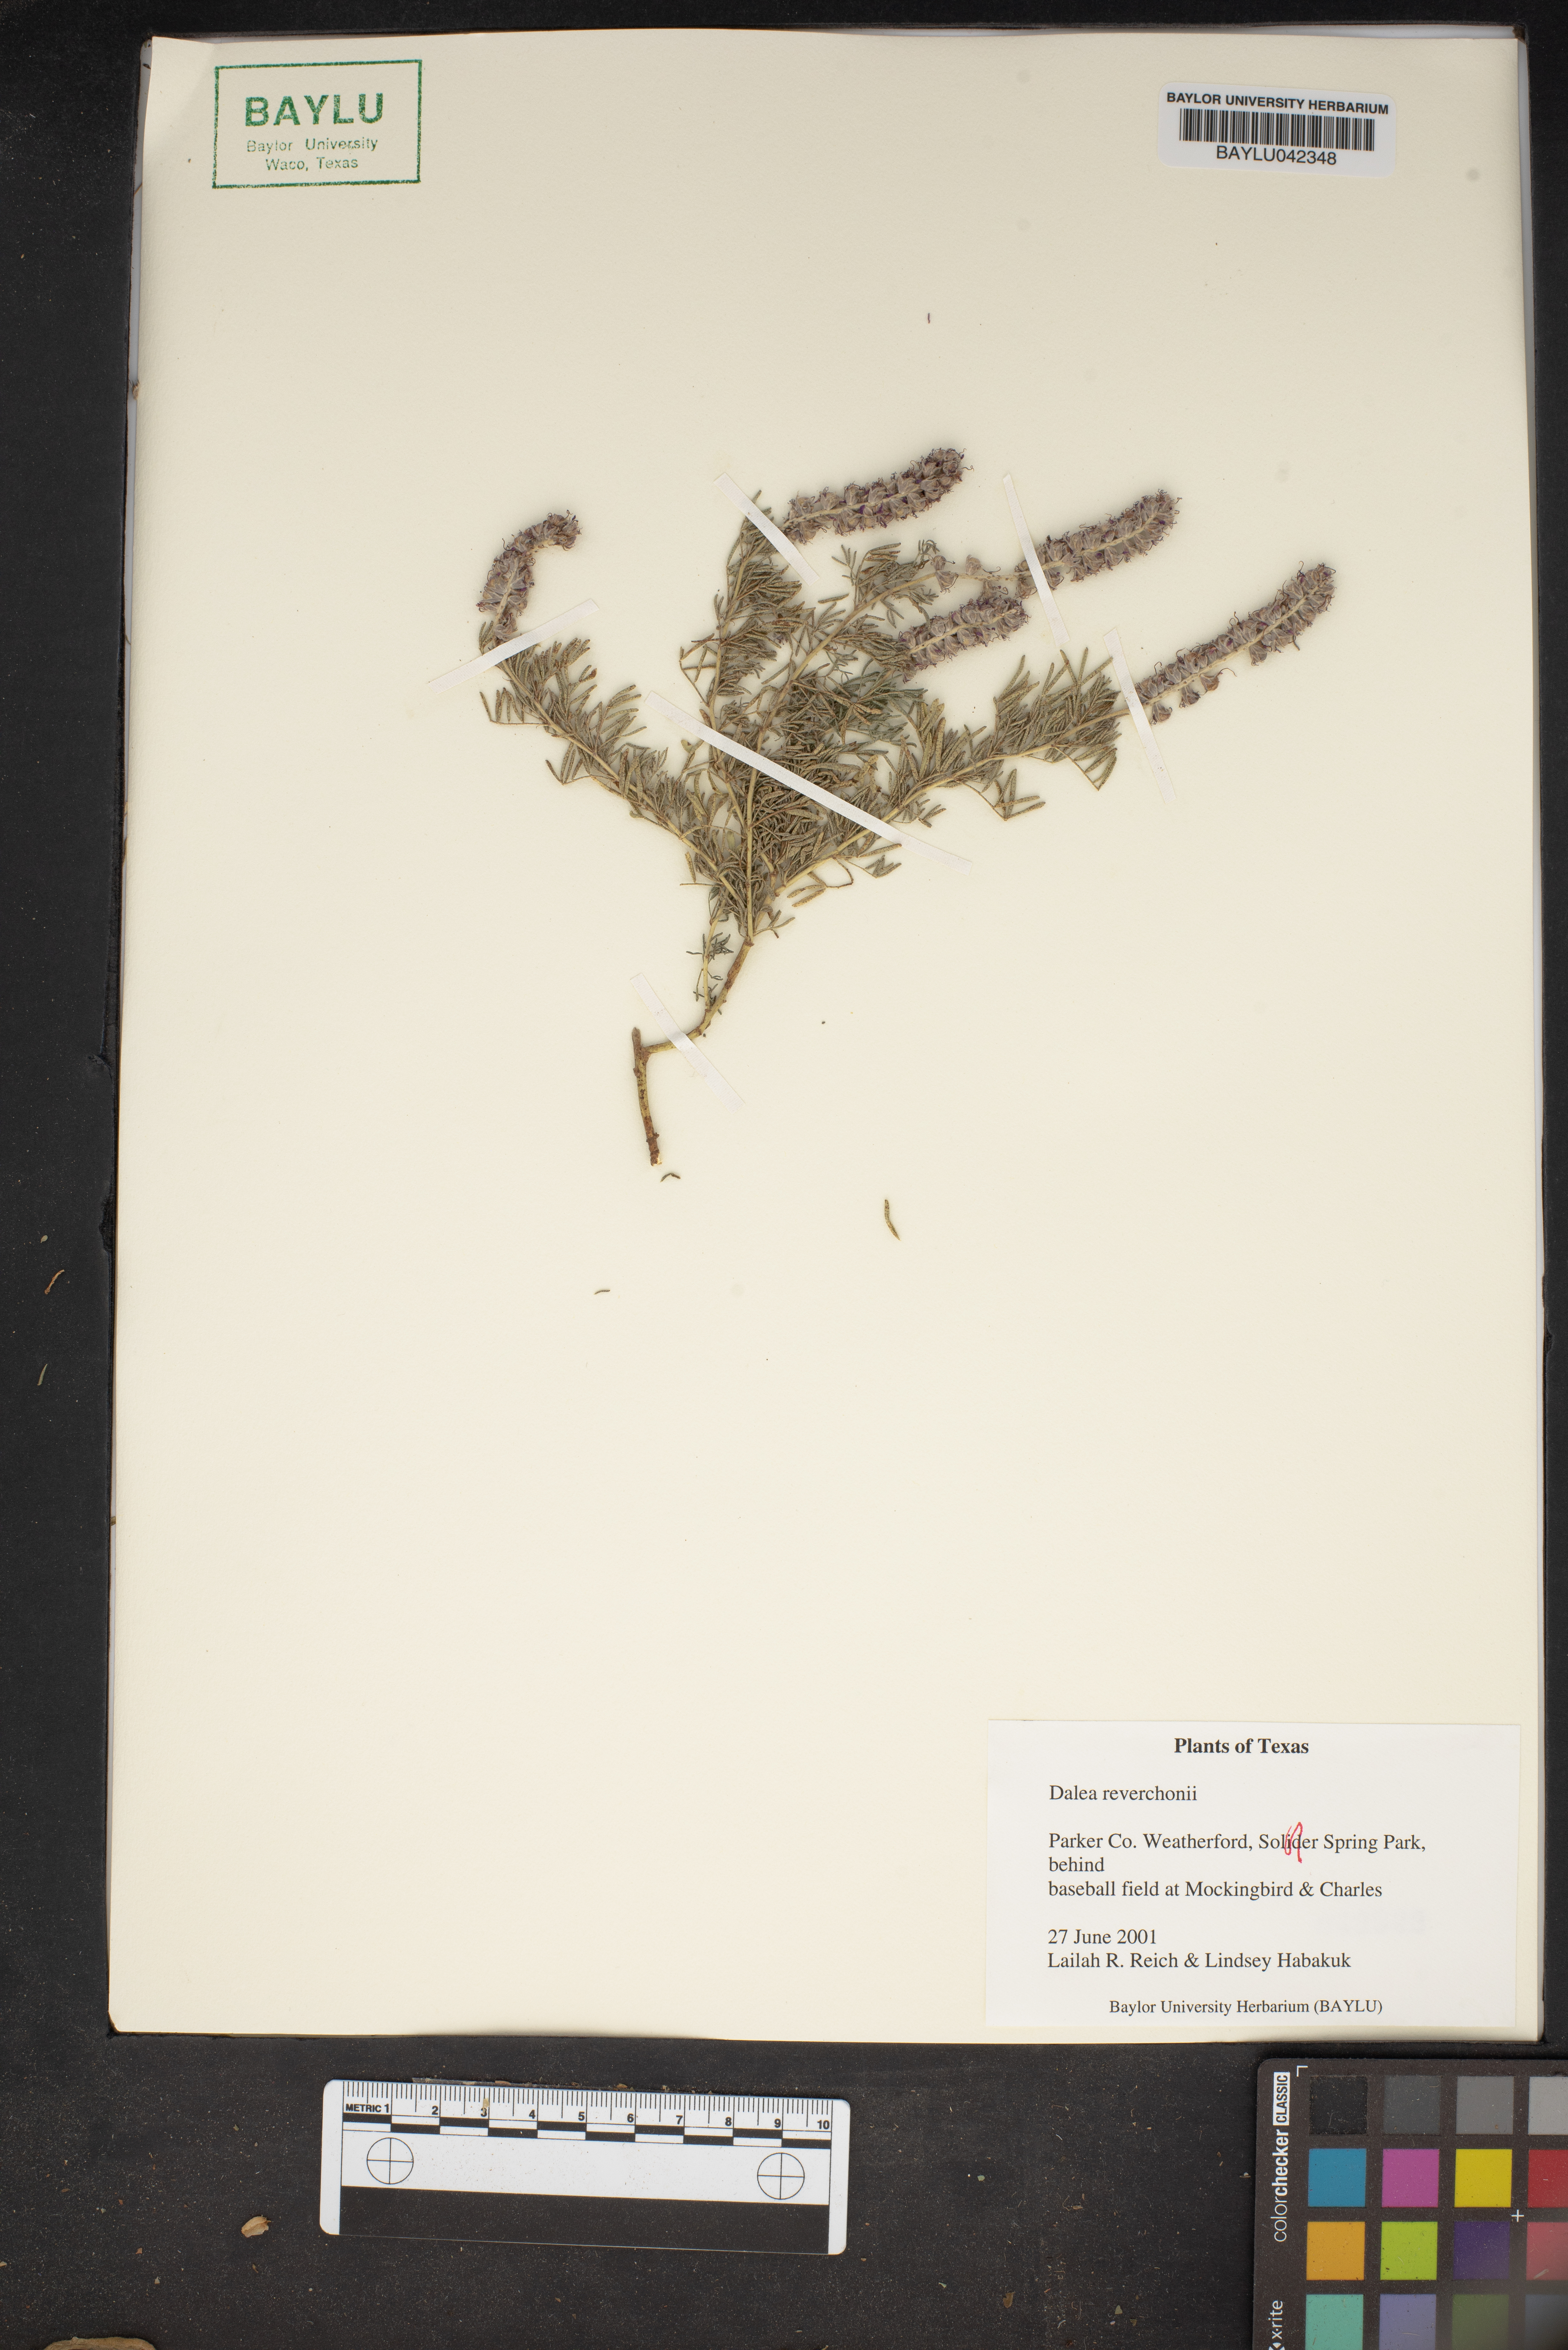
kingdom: Plantae
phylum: Tracheophyta
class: Magnoliopsida
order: Fabales
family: Fabaceae
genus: Dalea
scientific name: Dalea reverchonii
